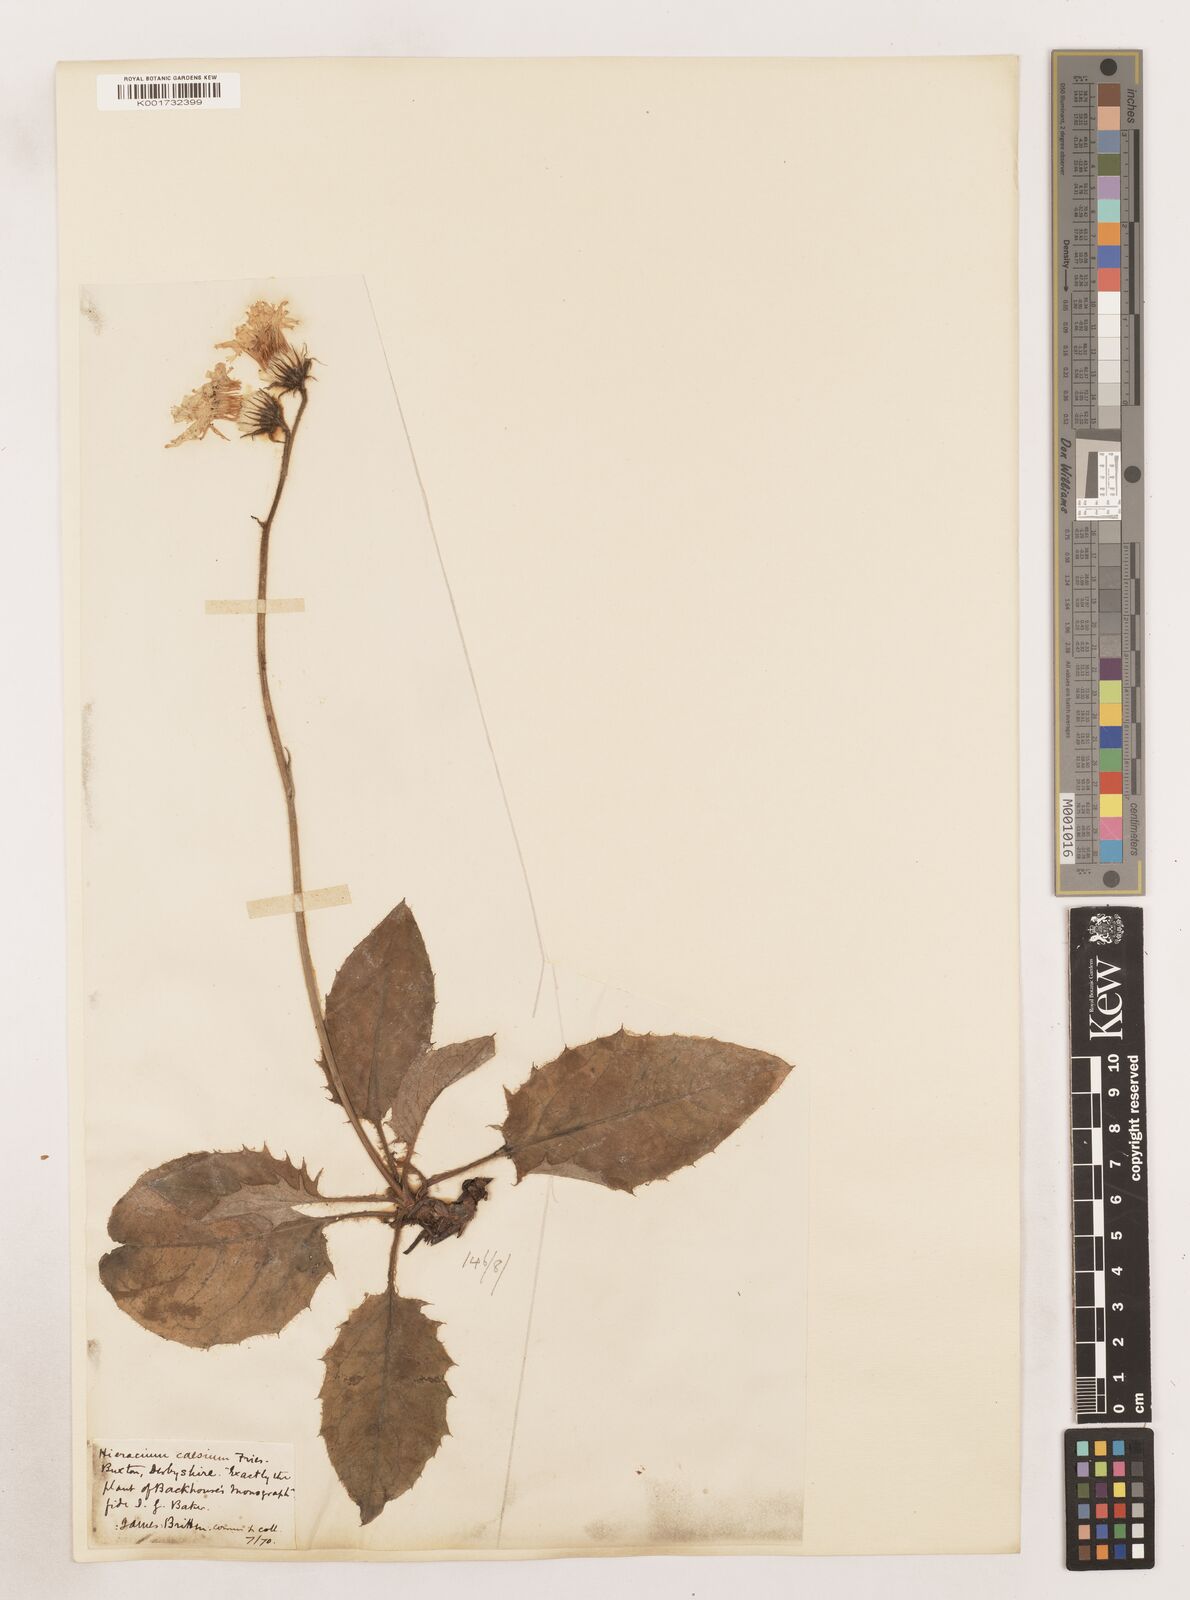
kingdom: Plantae
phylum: Tracheophyta
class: Magnoliopsida
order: Asterales
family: Asteraceae
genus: Hieracium
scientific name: Hieracium subbritannicum
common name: Limestone hawkweed
